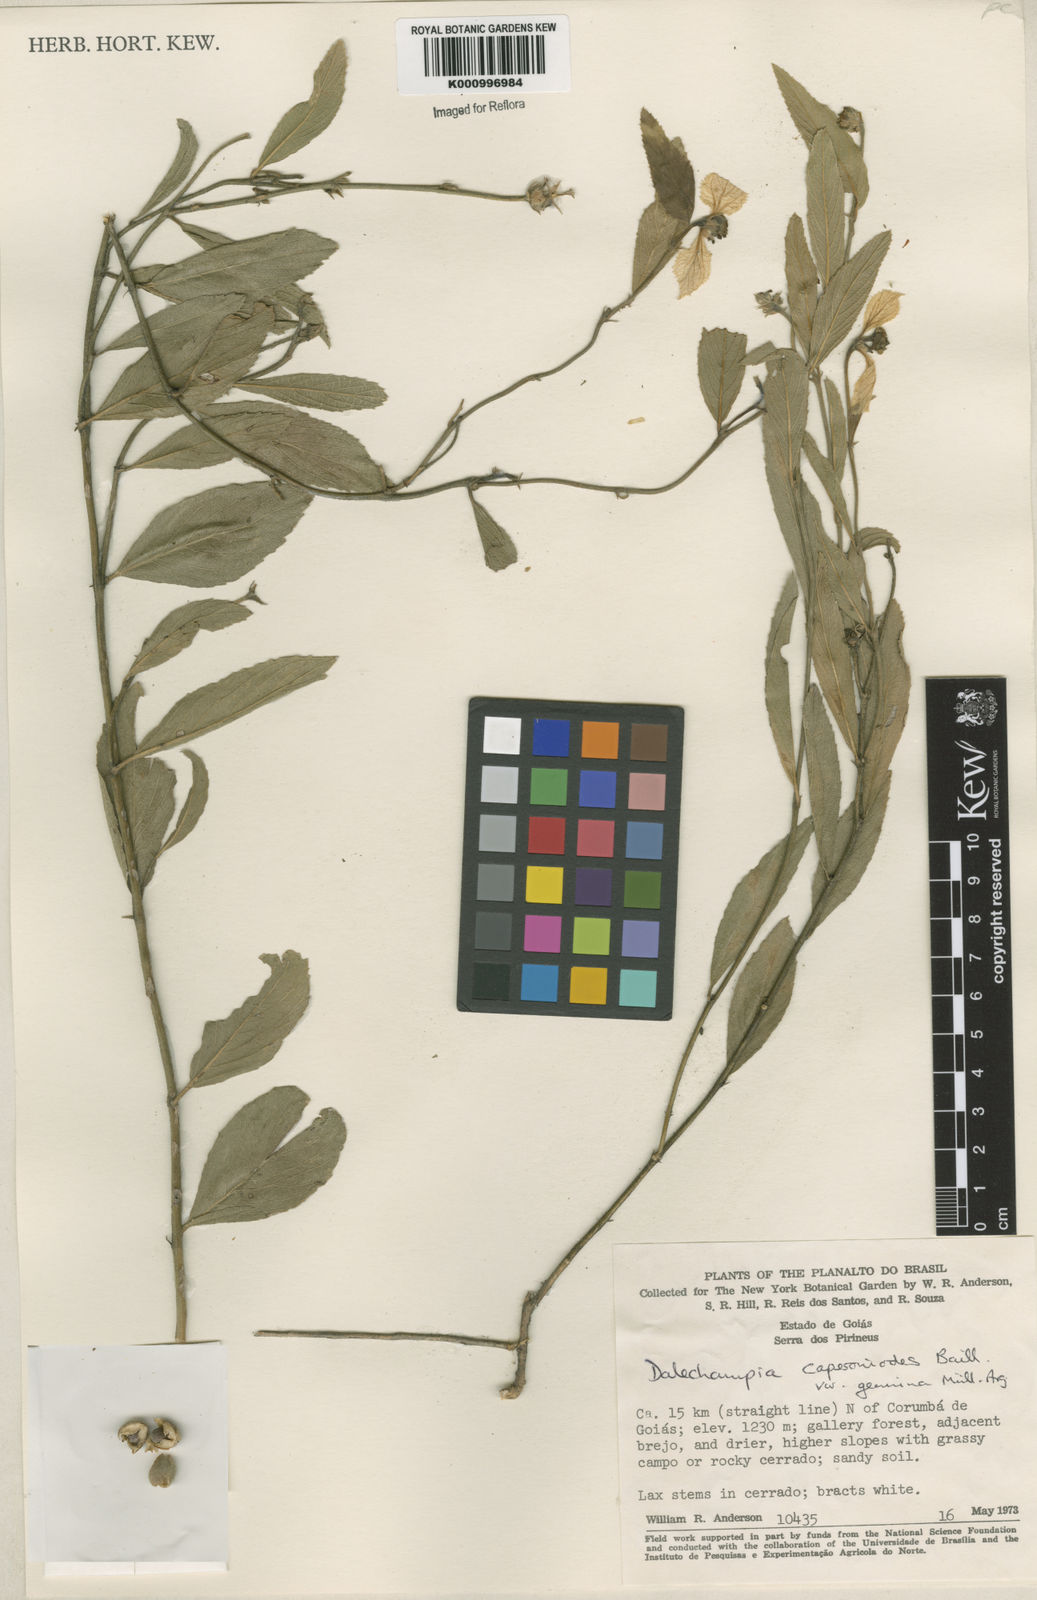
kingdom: Plantae
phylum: Tracheophyta
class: Magnoliopsida
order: Malpighiales
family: Euphorbiaceae
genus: Dalechampia
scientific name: Dalechampia caperonioides
